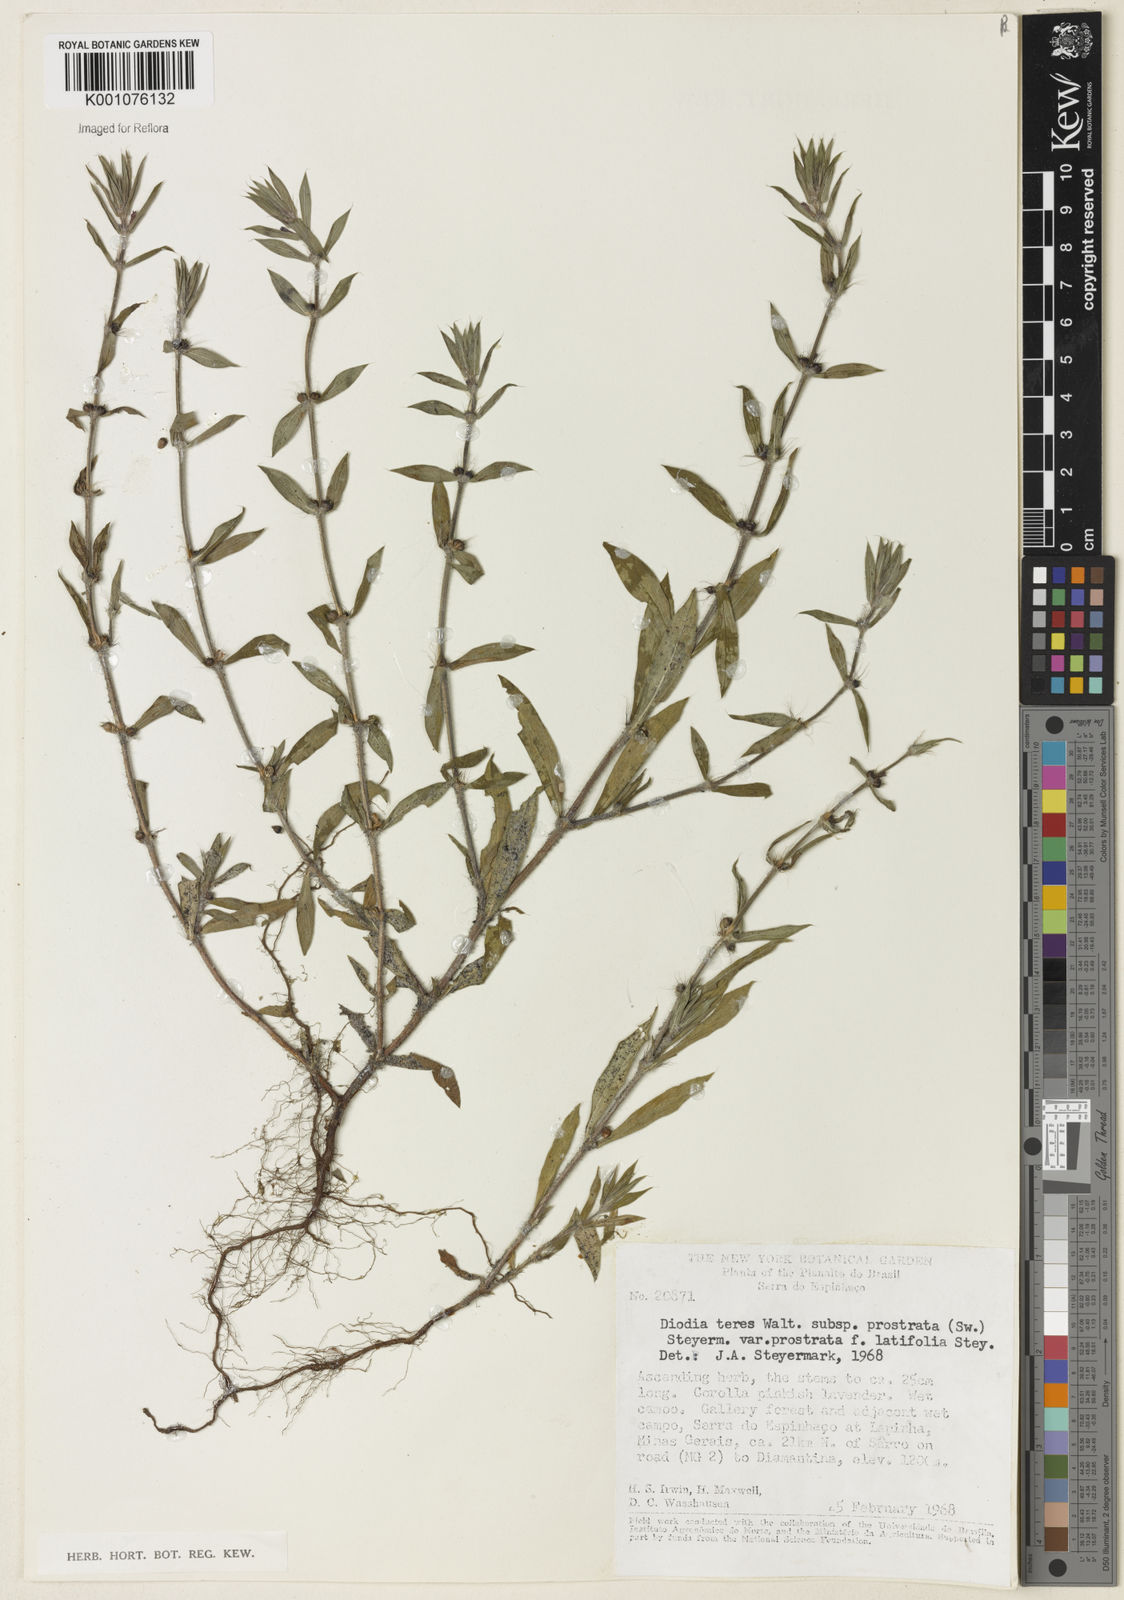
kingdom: Plantae
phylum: Tracheophyta
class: Magnoliopsida
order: Gentianales
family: Rubiaceae
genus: Hexasepalum
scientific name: Hexasepalum teres
